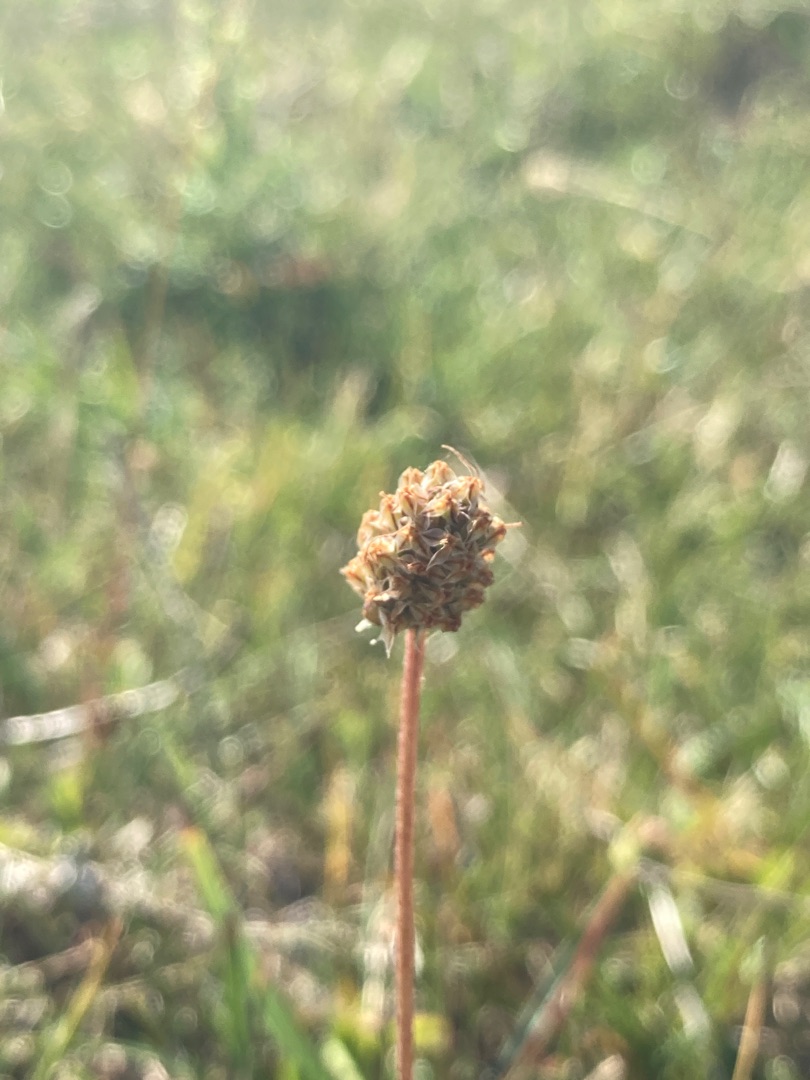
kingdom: Plantae
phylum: Tracheophyta
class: Magnoliopsida
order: Lamiales
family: Plantaginaceae
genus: Plantago
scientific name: Plantago lanceolata
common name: Lancet-vejbred
